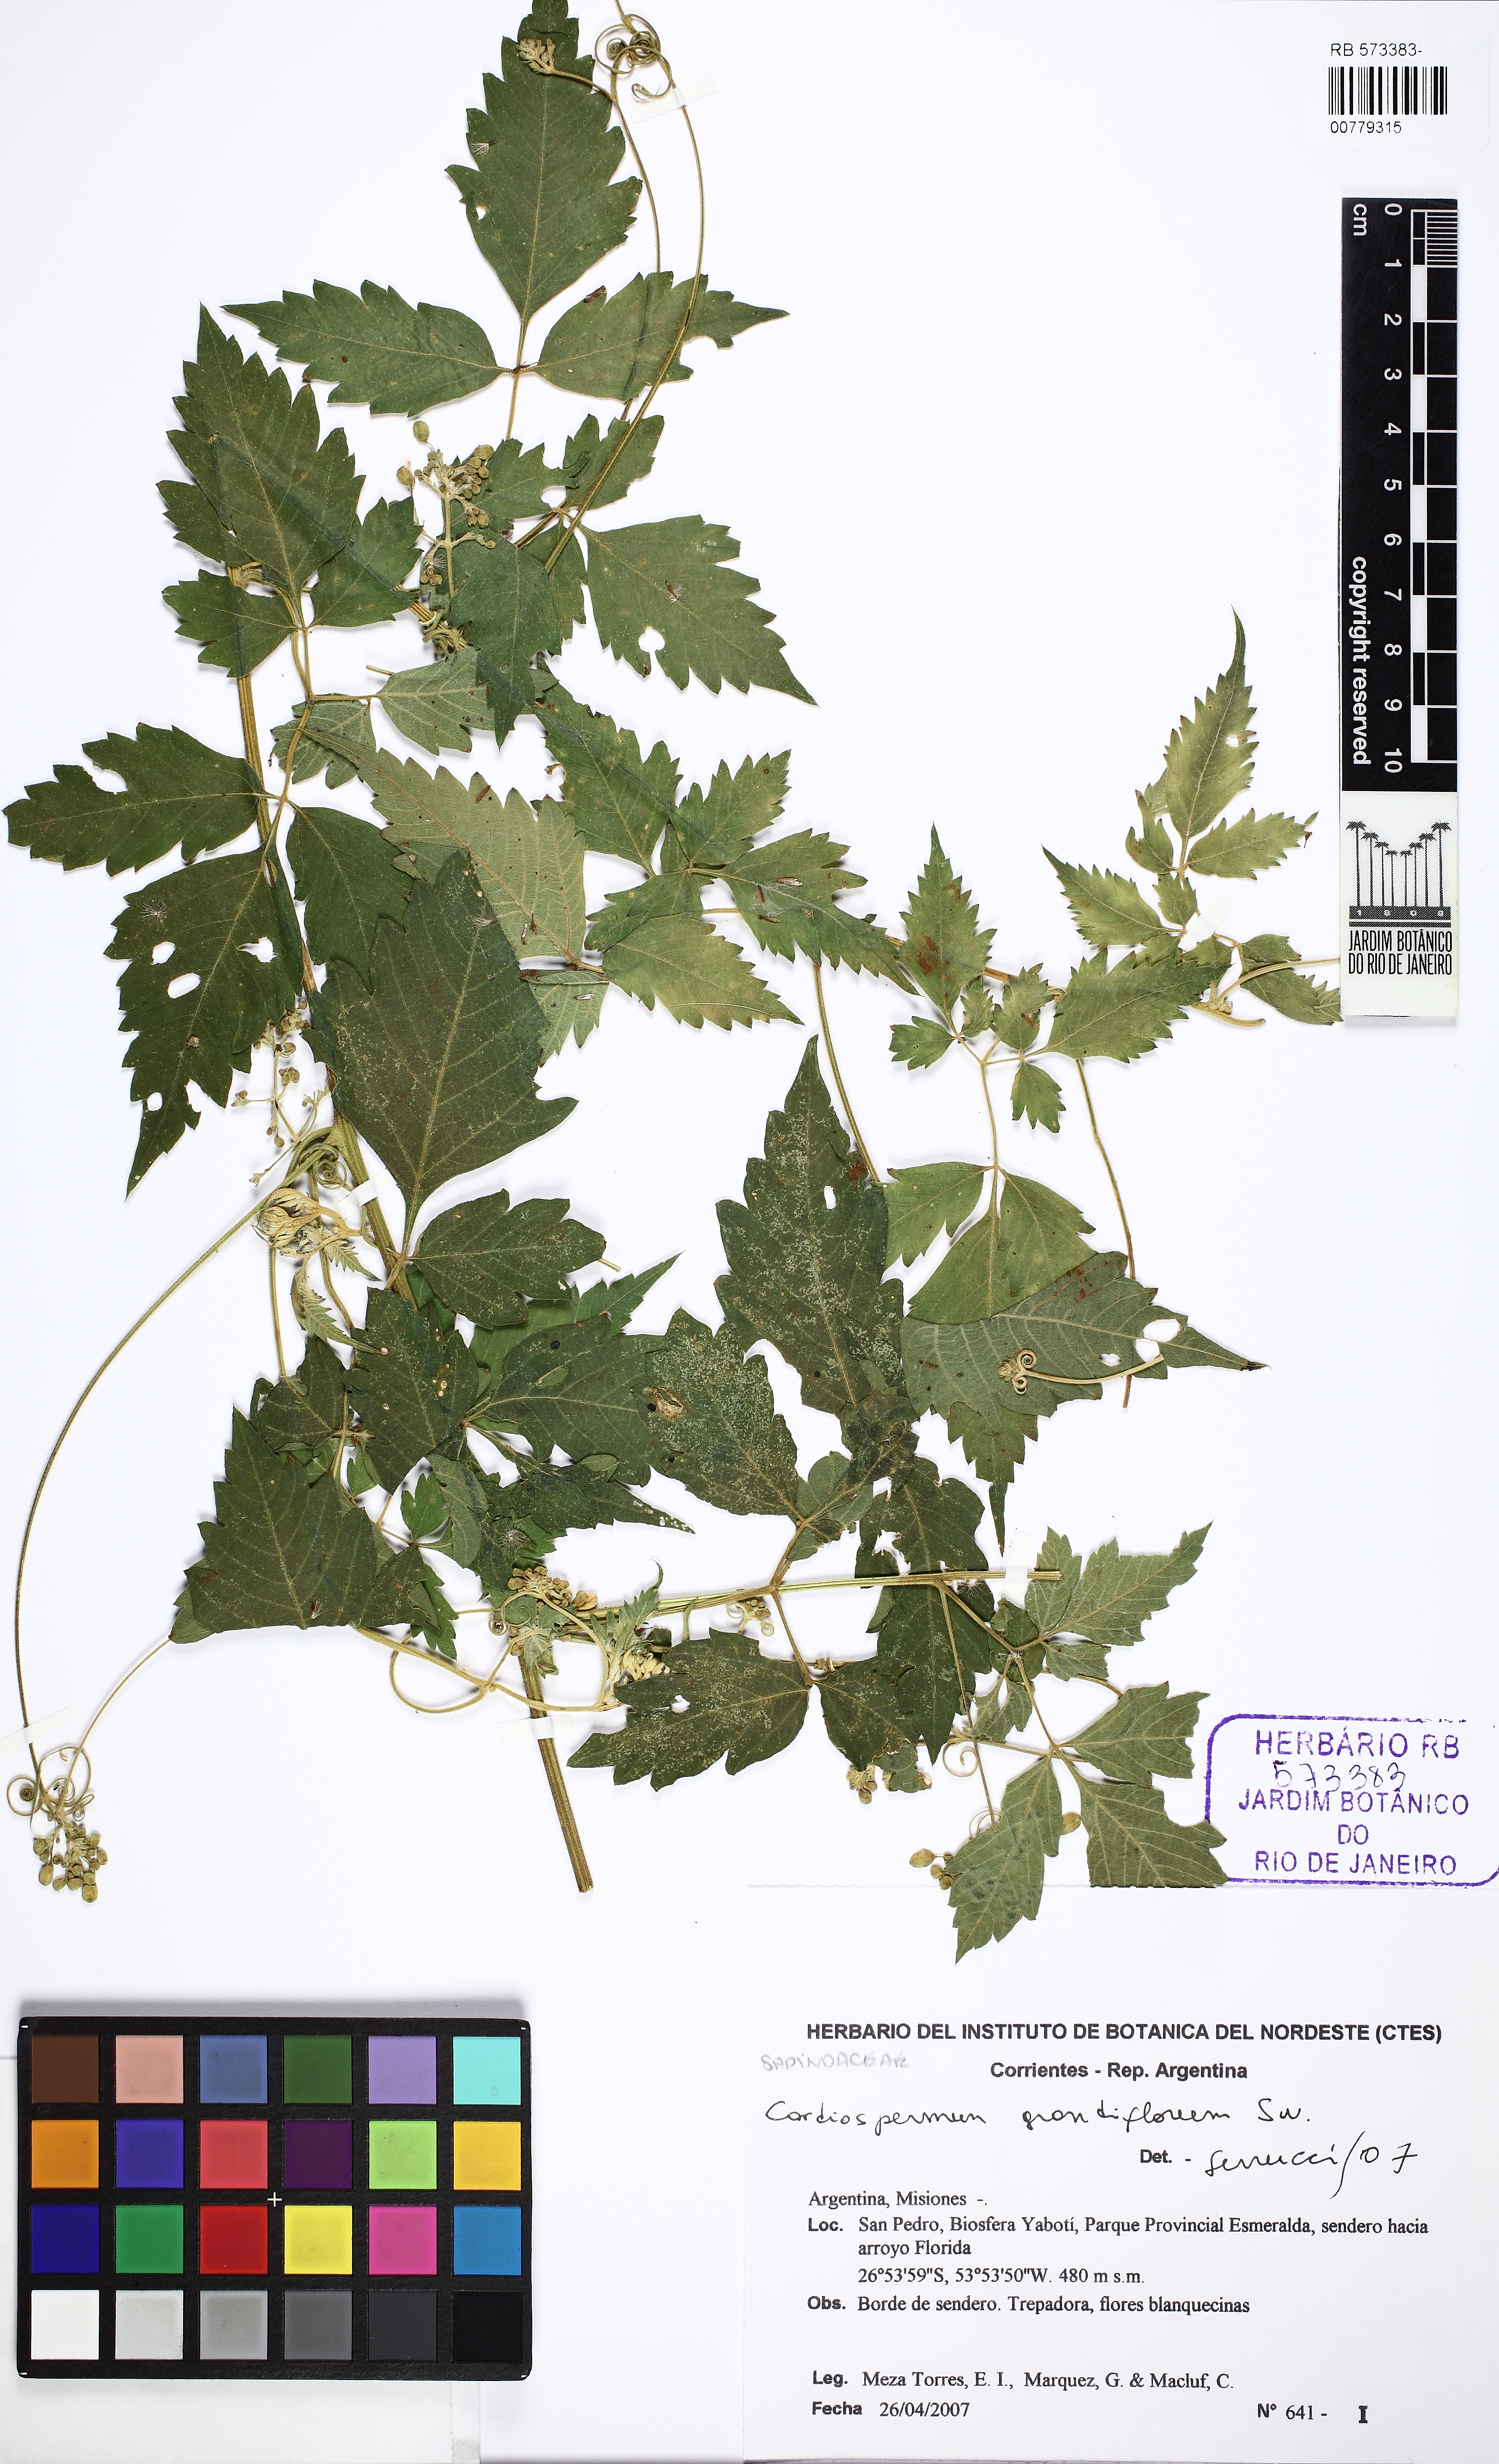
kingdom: Plantae
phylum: Tracheophyta
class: Magnoliopsida
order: Sapindales
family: Sapindaceae
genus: Cardiospermum
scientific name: Cardiospermum grandiflorum
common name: Balloon vine
